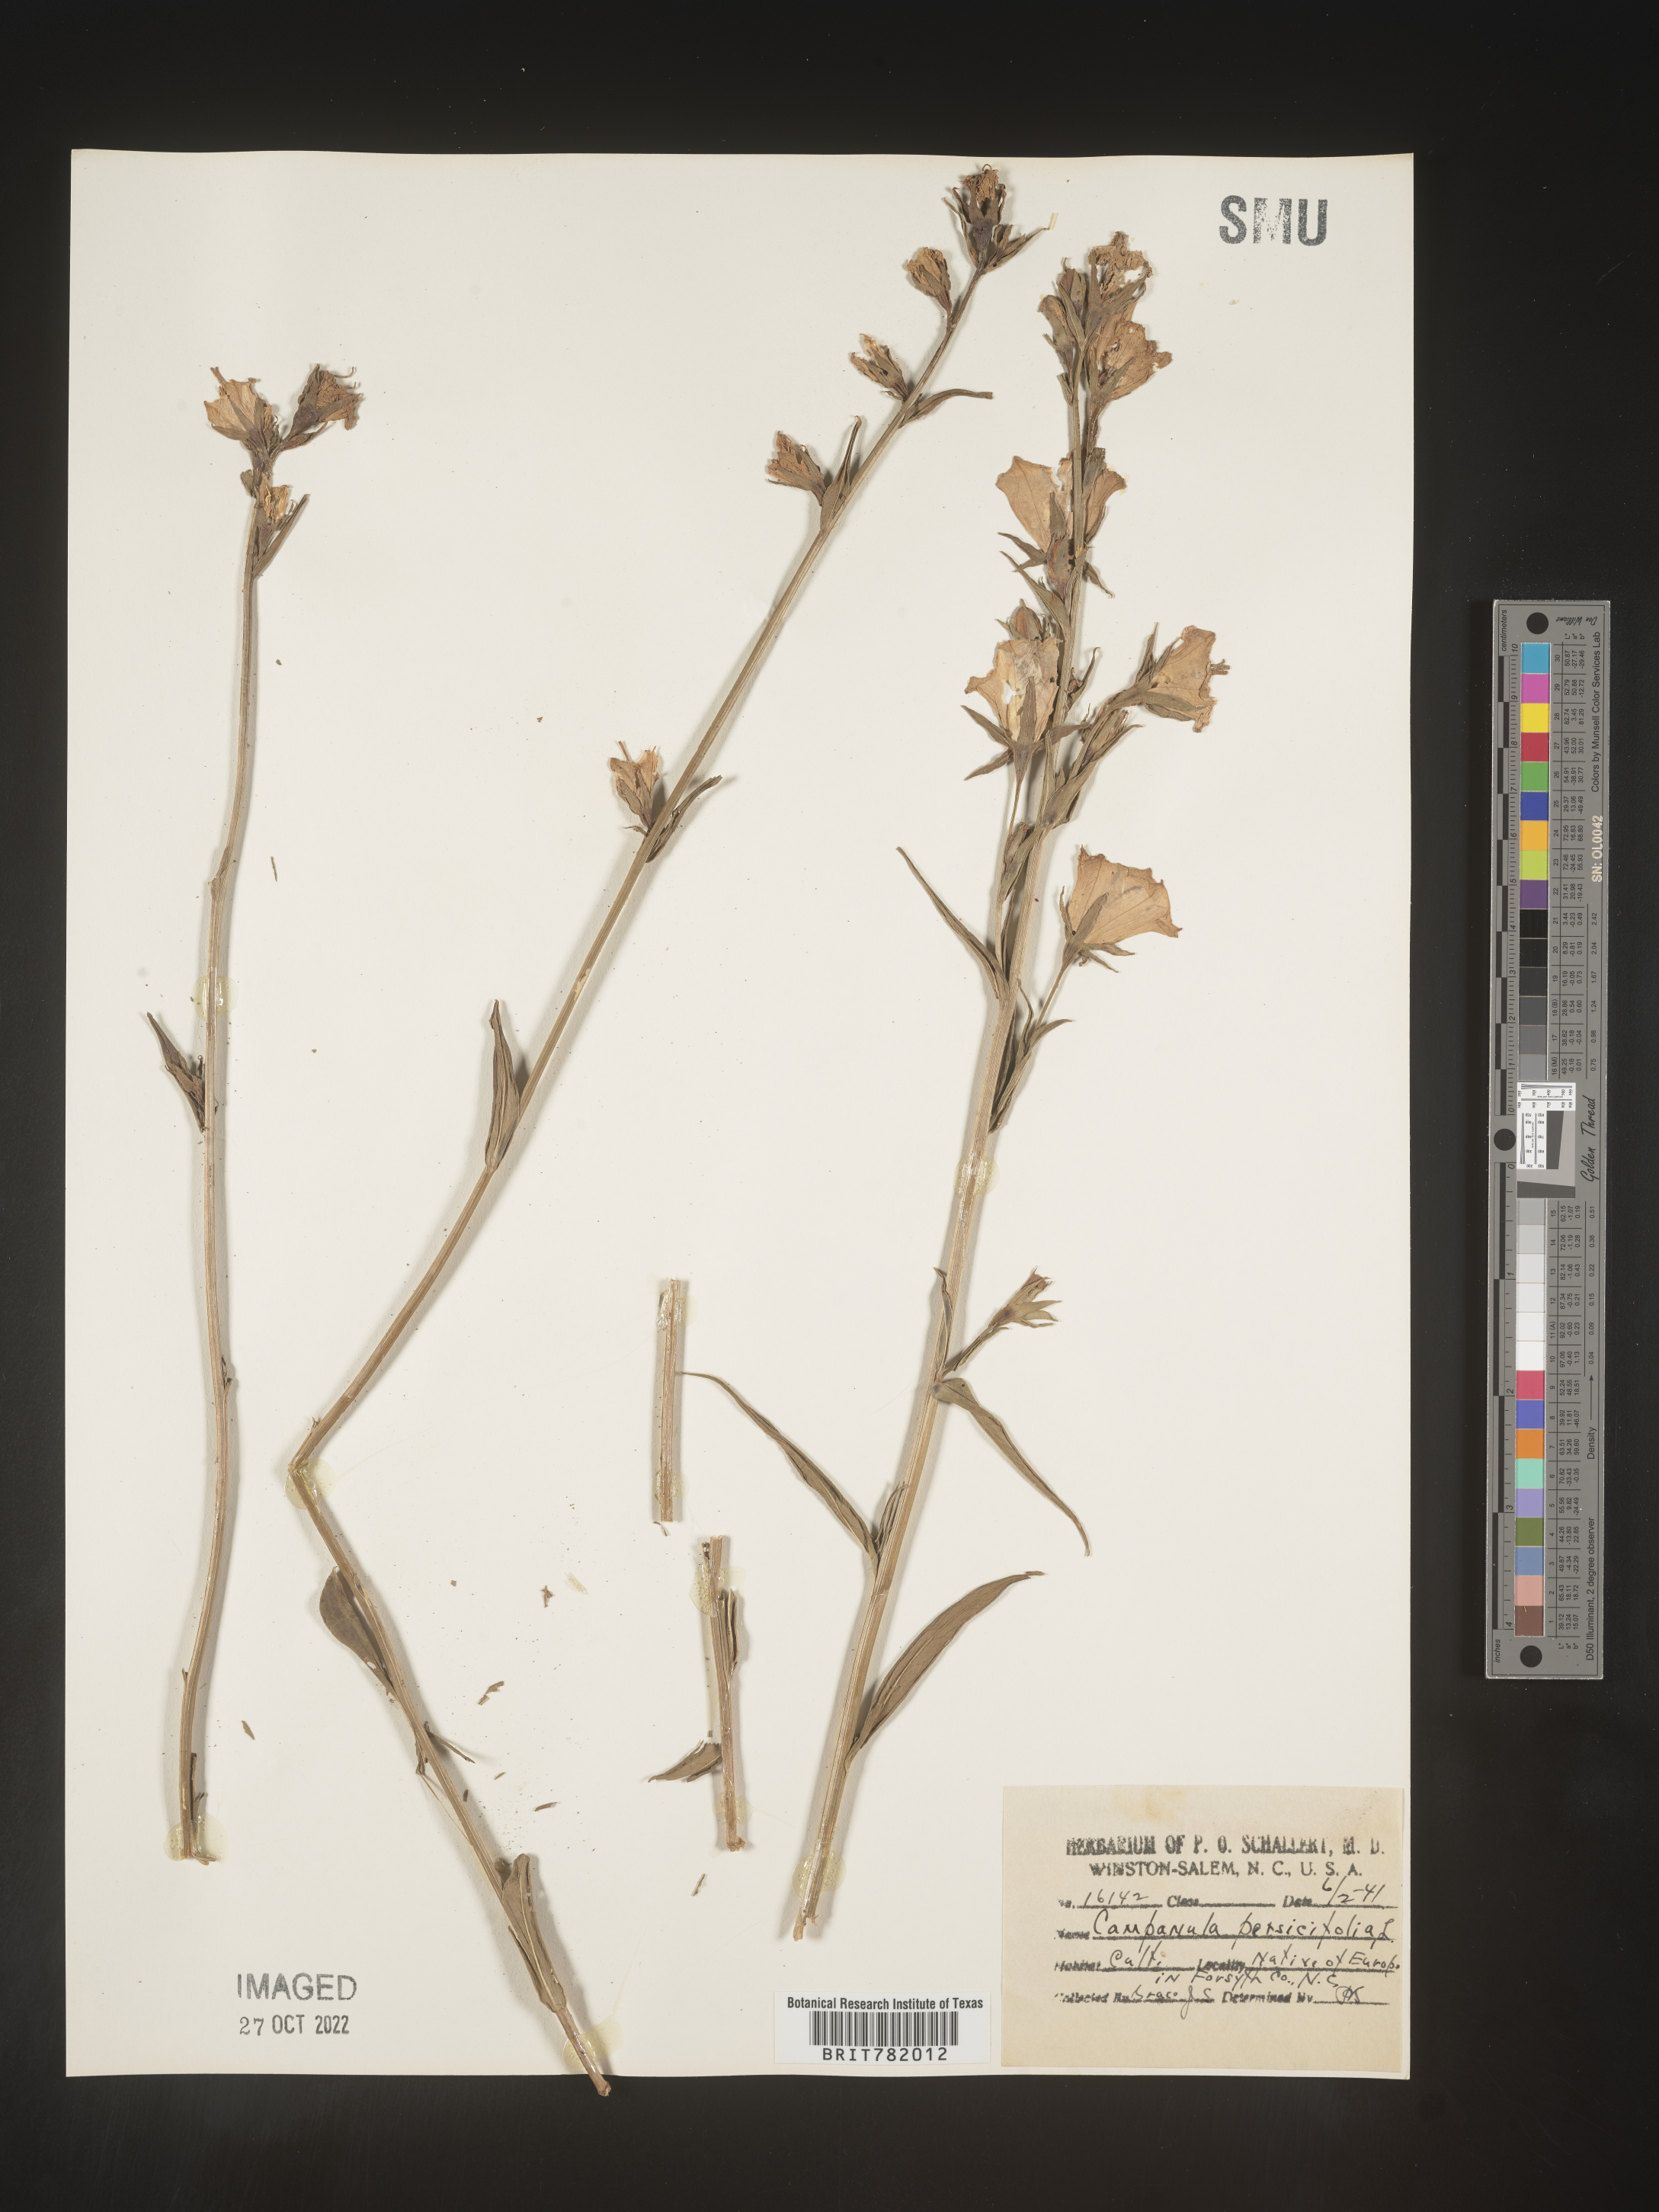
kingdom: Plantae
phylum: Tracheophyta
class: Magnoliopsida
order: Asterales
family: Campanulaceae
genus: Campanula
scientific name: Campanula
